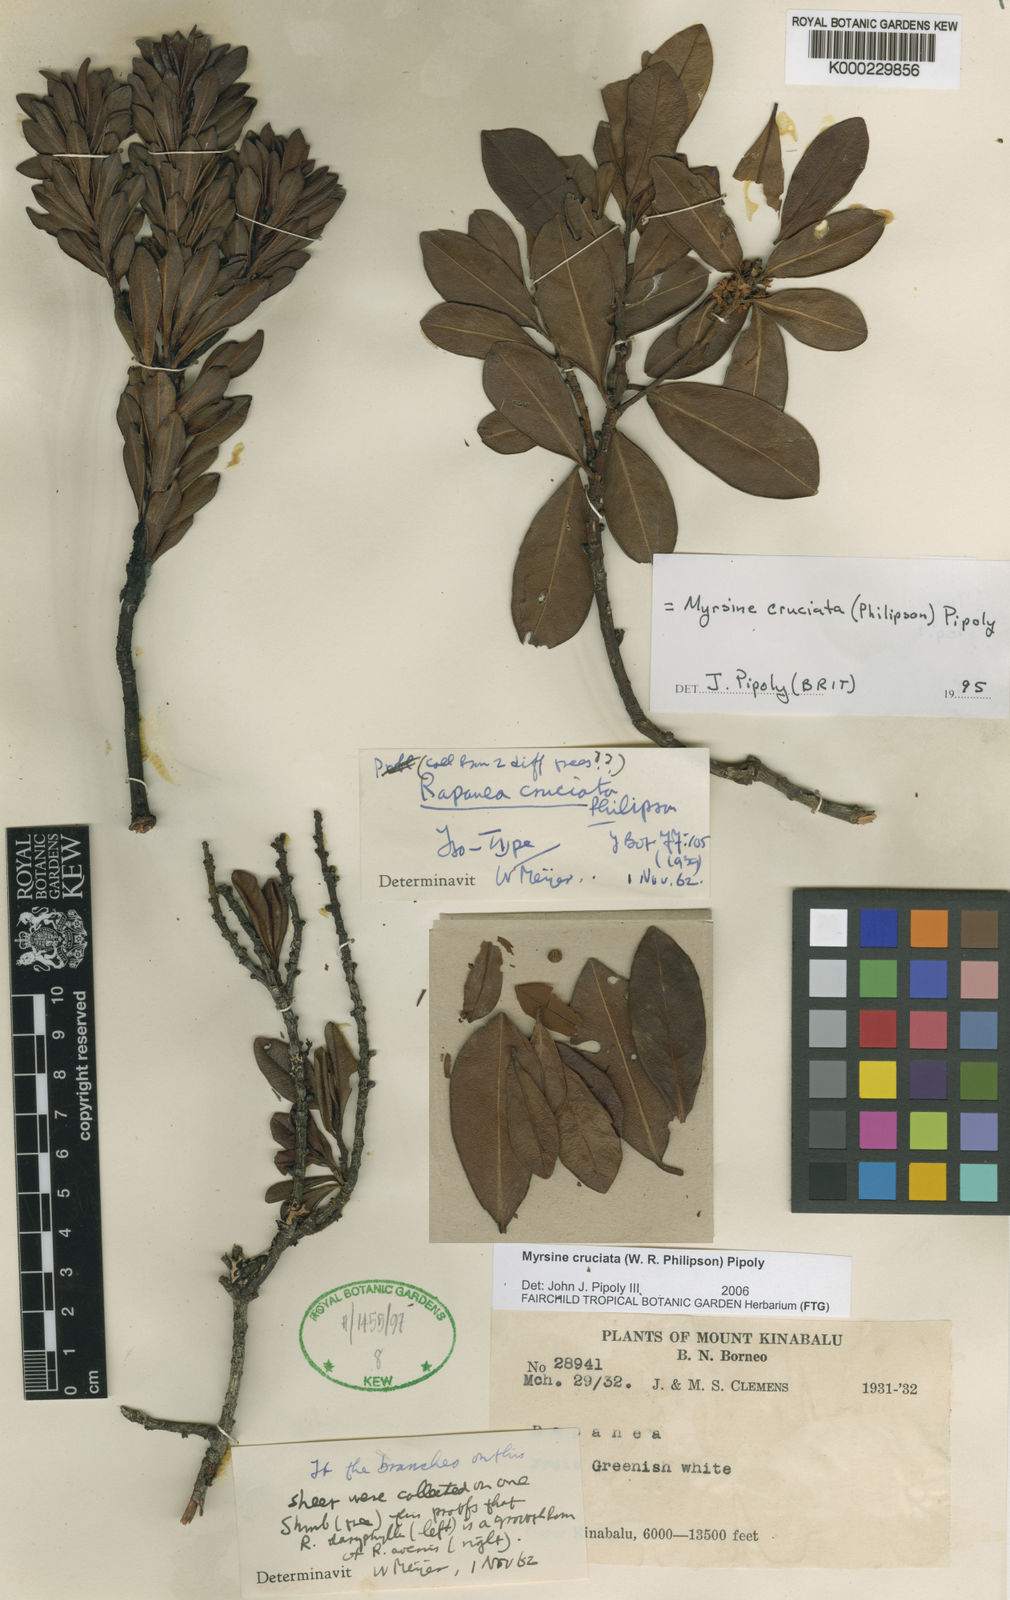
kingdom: Plantae
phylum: Tracheophyta
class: Magnoliopsida
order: Ericales
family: Primulaceae
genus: Myrsine
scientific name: Myrsine cruciata
